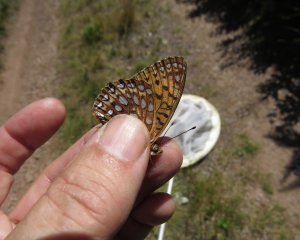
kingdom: Animalia
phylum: Arthropoda
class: Insecta
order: Lepidoptera
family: Nymphalidae
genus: Speyeria
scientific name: Speyeria atlantis
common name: Atlantis Fritillary
